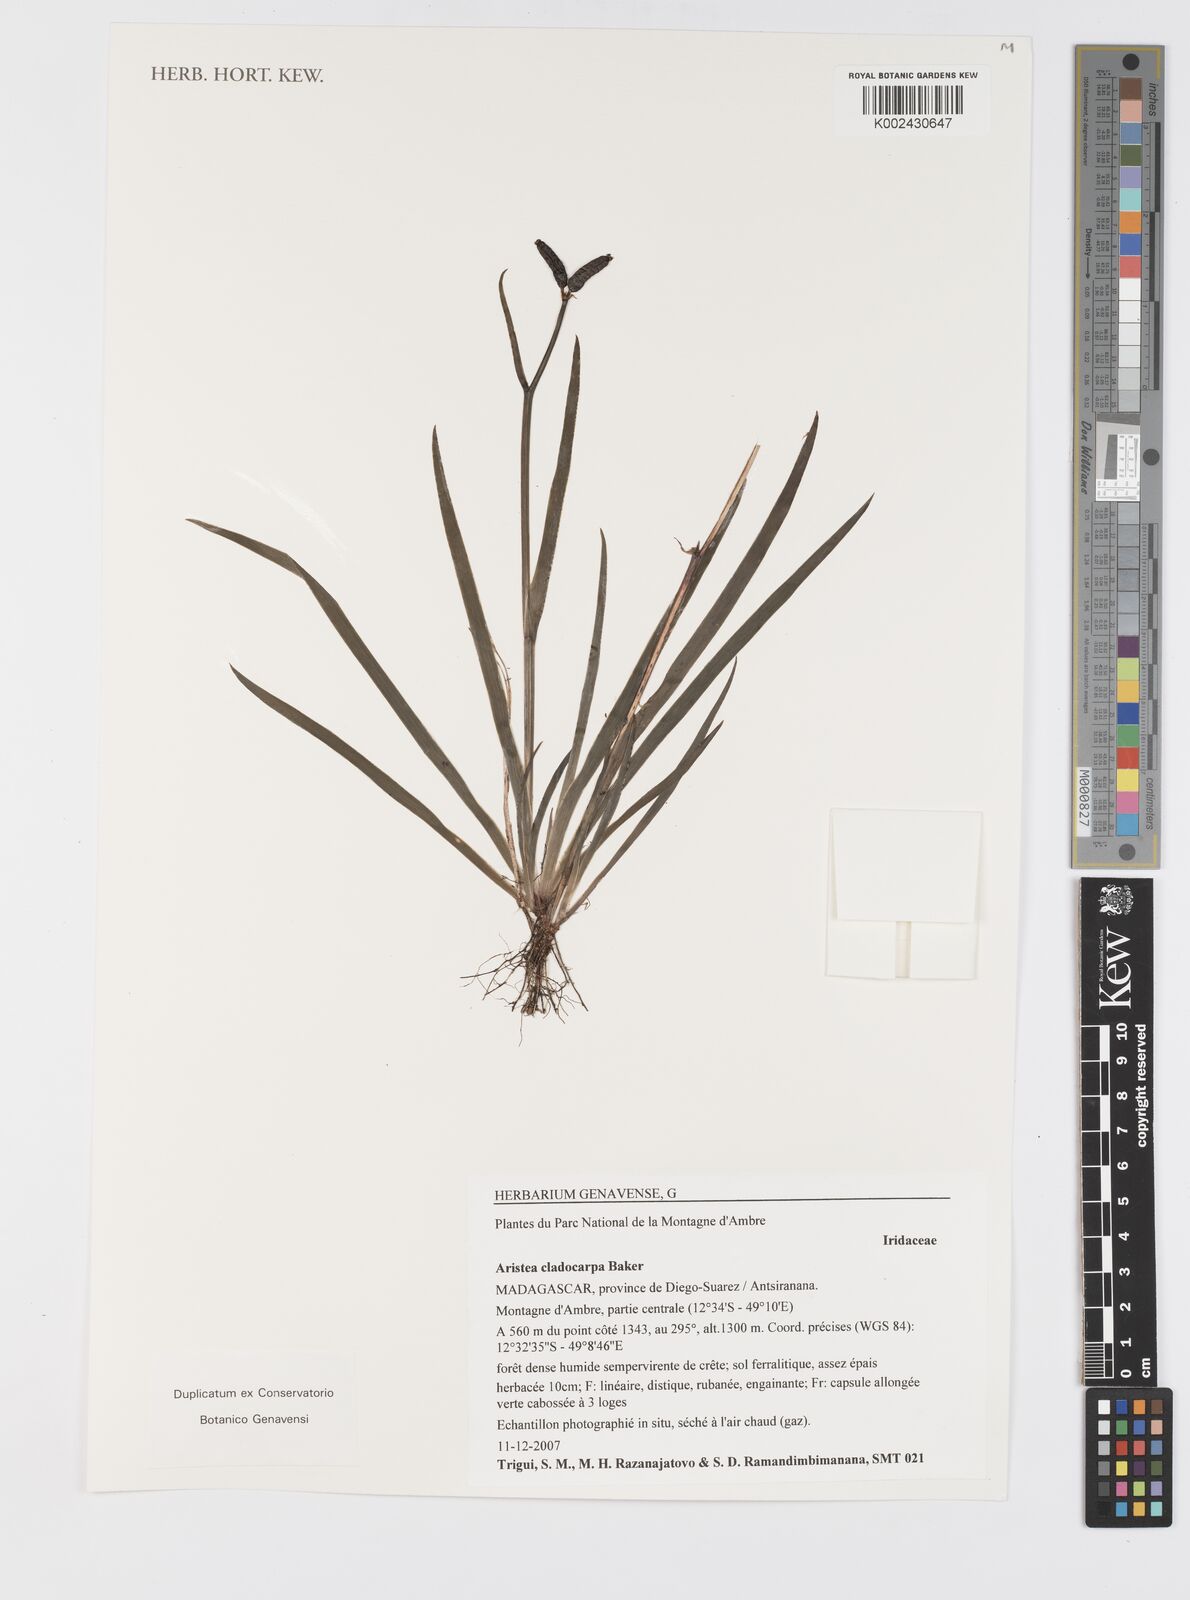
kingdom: Plantae
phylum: Tracheophyta
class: Liliopsida
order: Asparagales
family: Iridaceae
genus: Aristea
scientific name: Aristea cladocarpa
